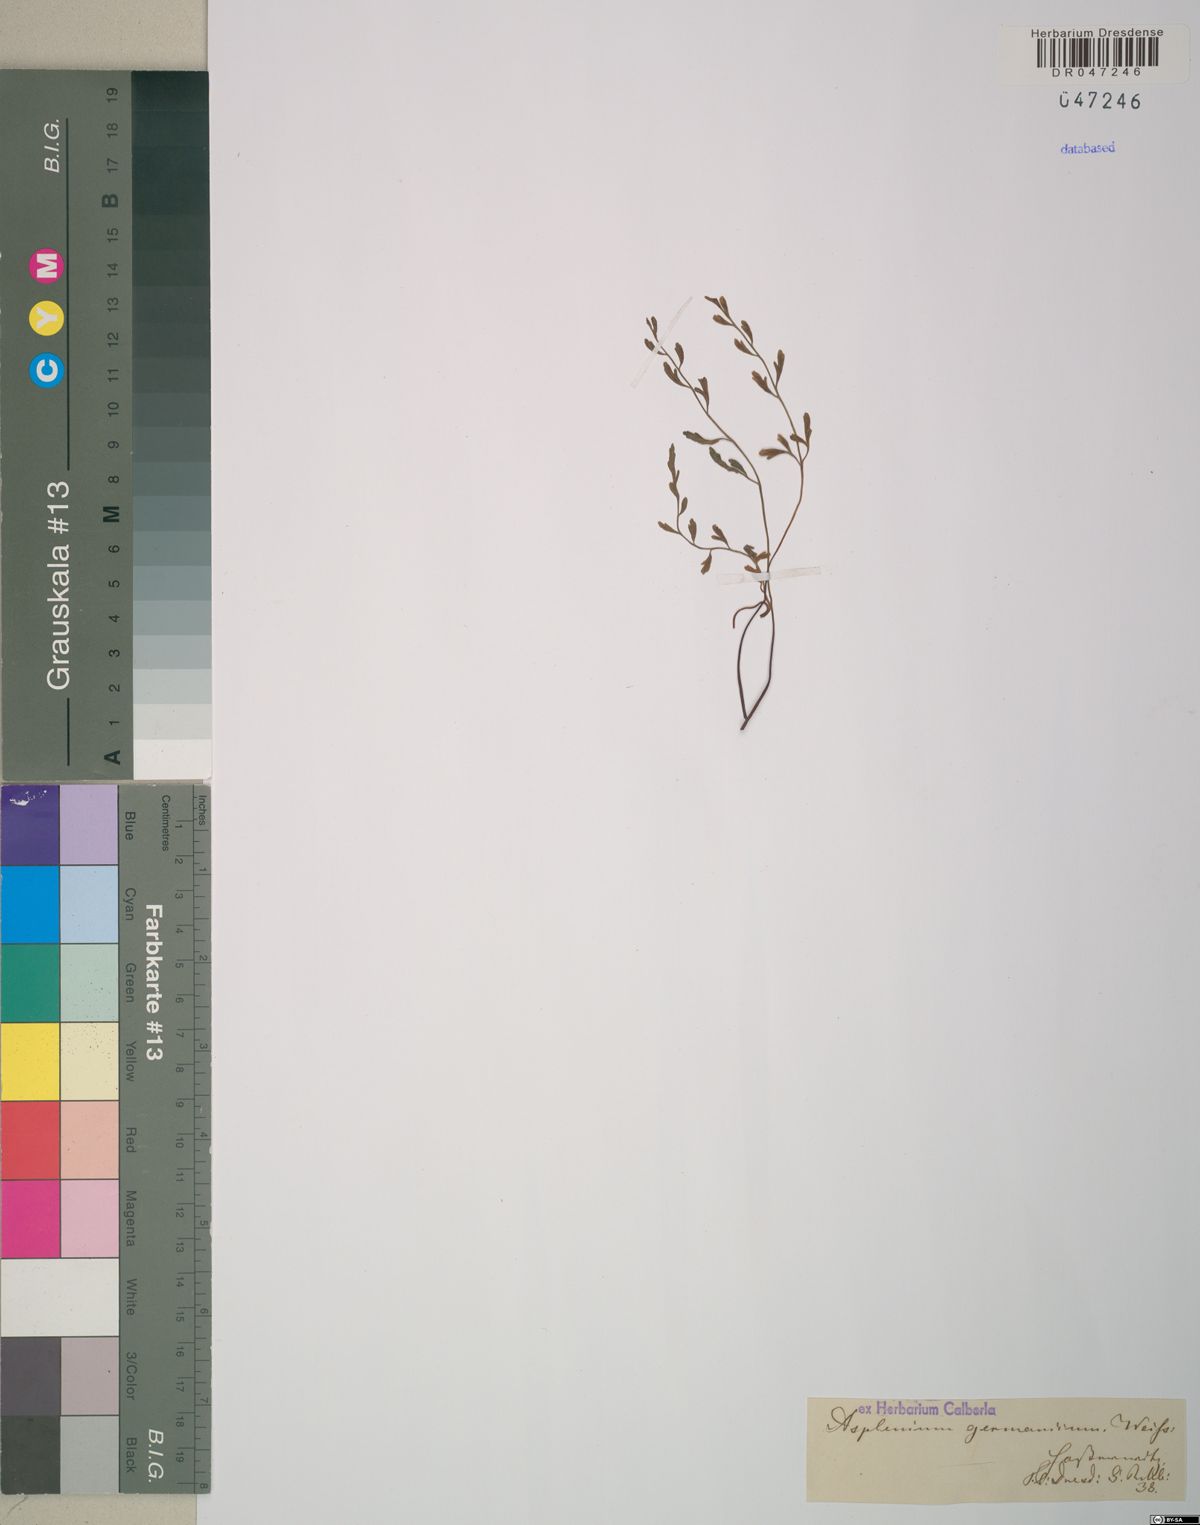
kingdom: Plantae
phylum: Tracheophyta
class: Polypodiopsida
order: Polypodiales
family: Aspleniaceae
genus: Asplenium
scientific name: Asplenium
